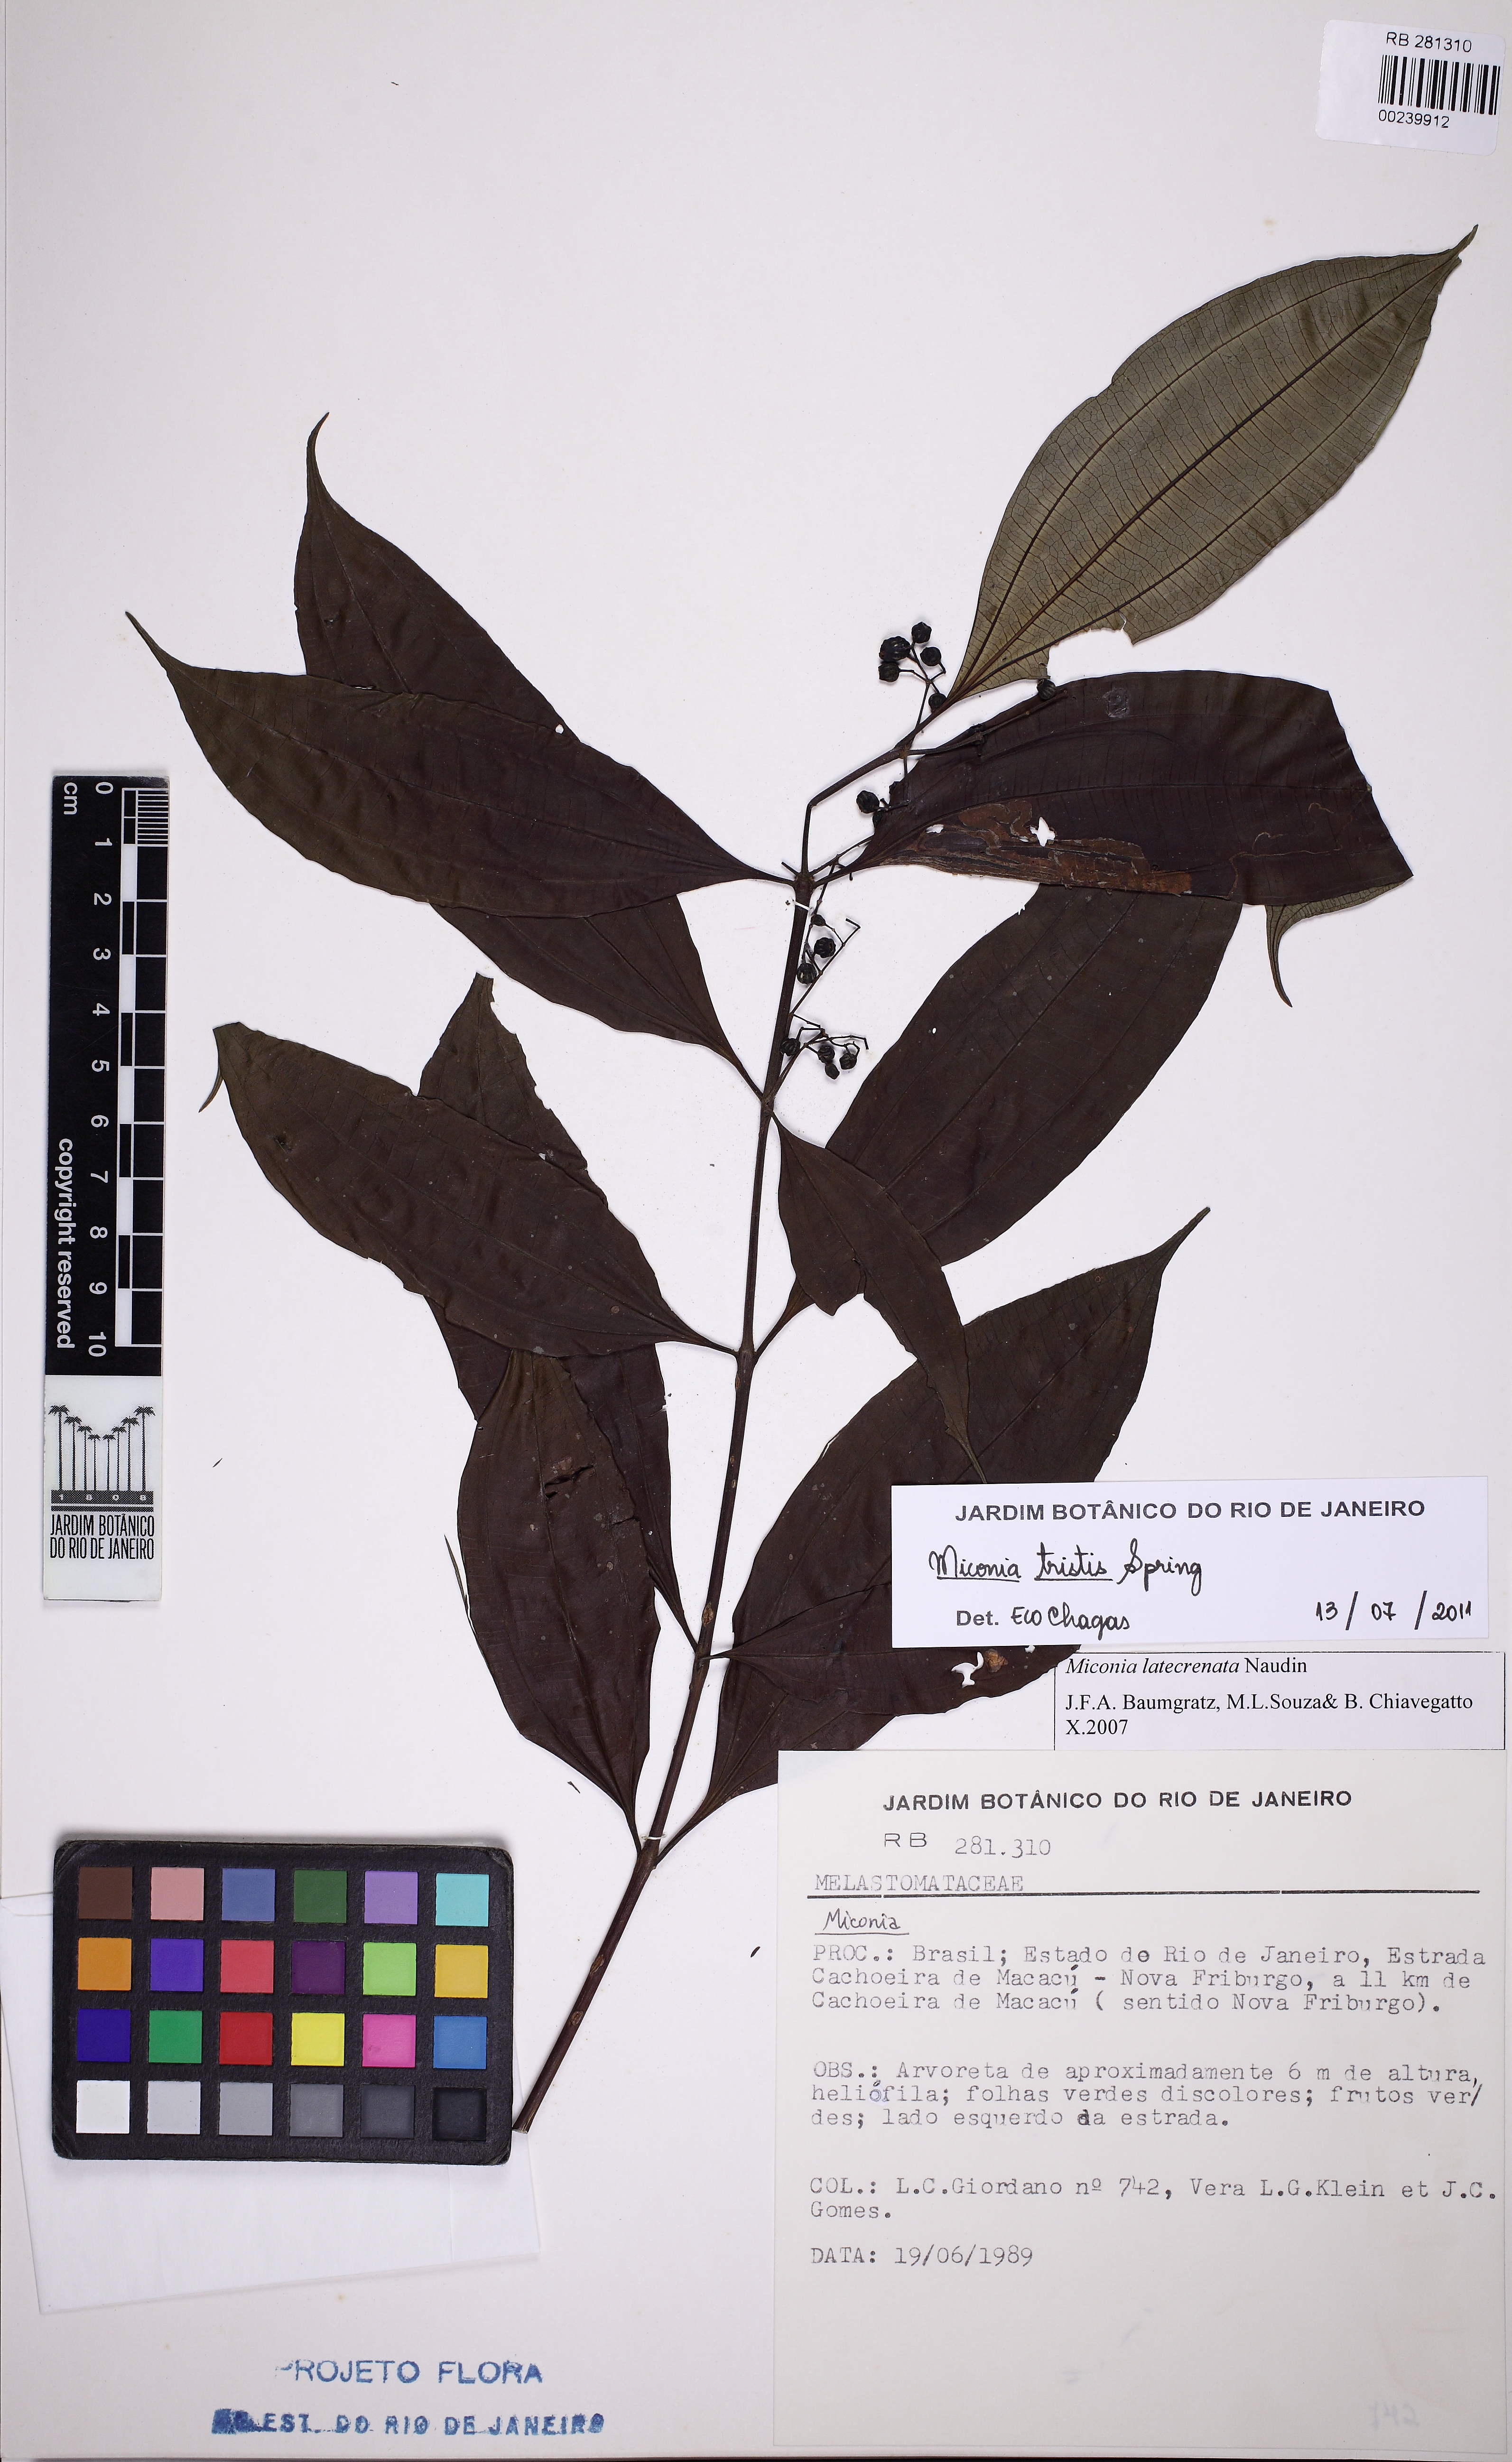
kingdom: Plantae
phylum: Tracheophyta
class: Magnoliopsida
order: Myrtales
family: Melastomataceae
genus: Miconia
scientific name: Miconia tristis
